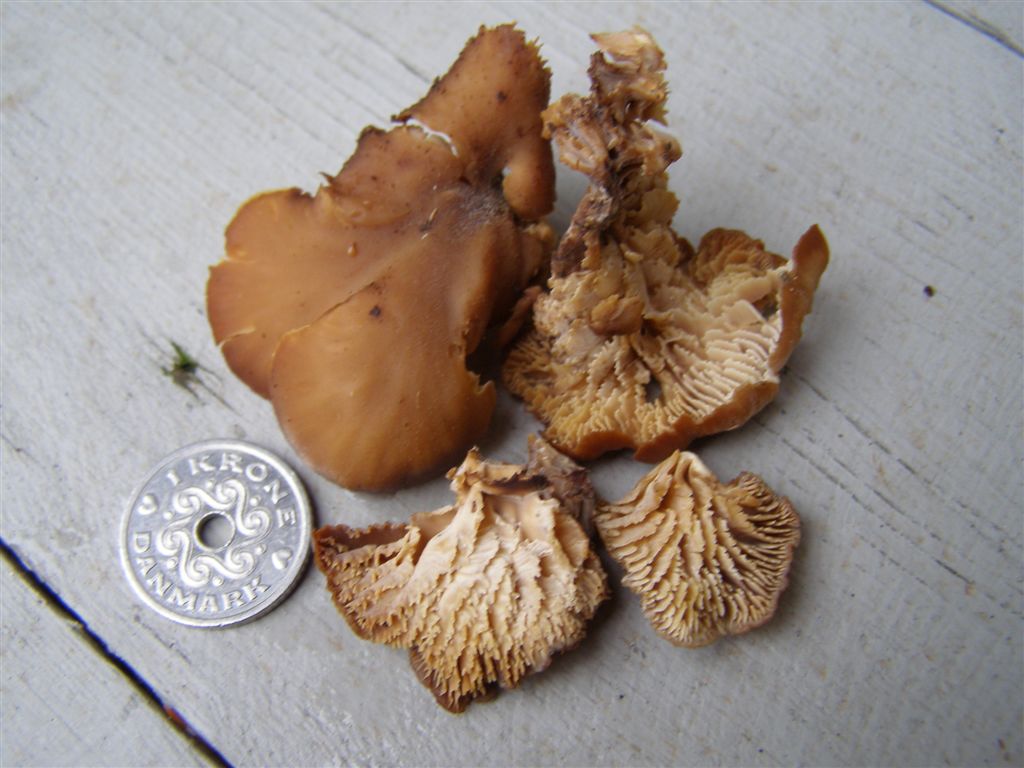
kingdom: Fungi
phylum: Basidiomycota
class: Agaricomycetes
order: Russulales
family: Auriscalpiaceae
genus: Lentinellus
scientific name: Lentinellus cochleatus
